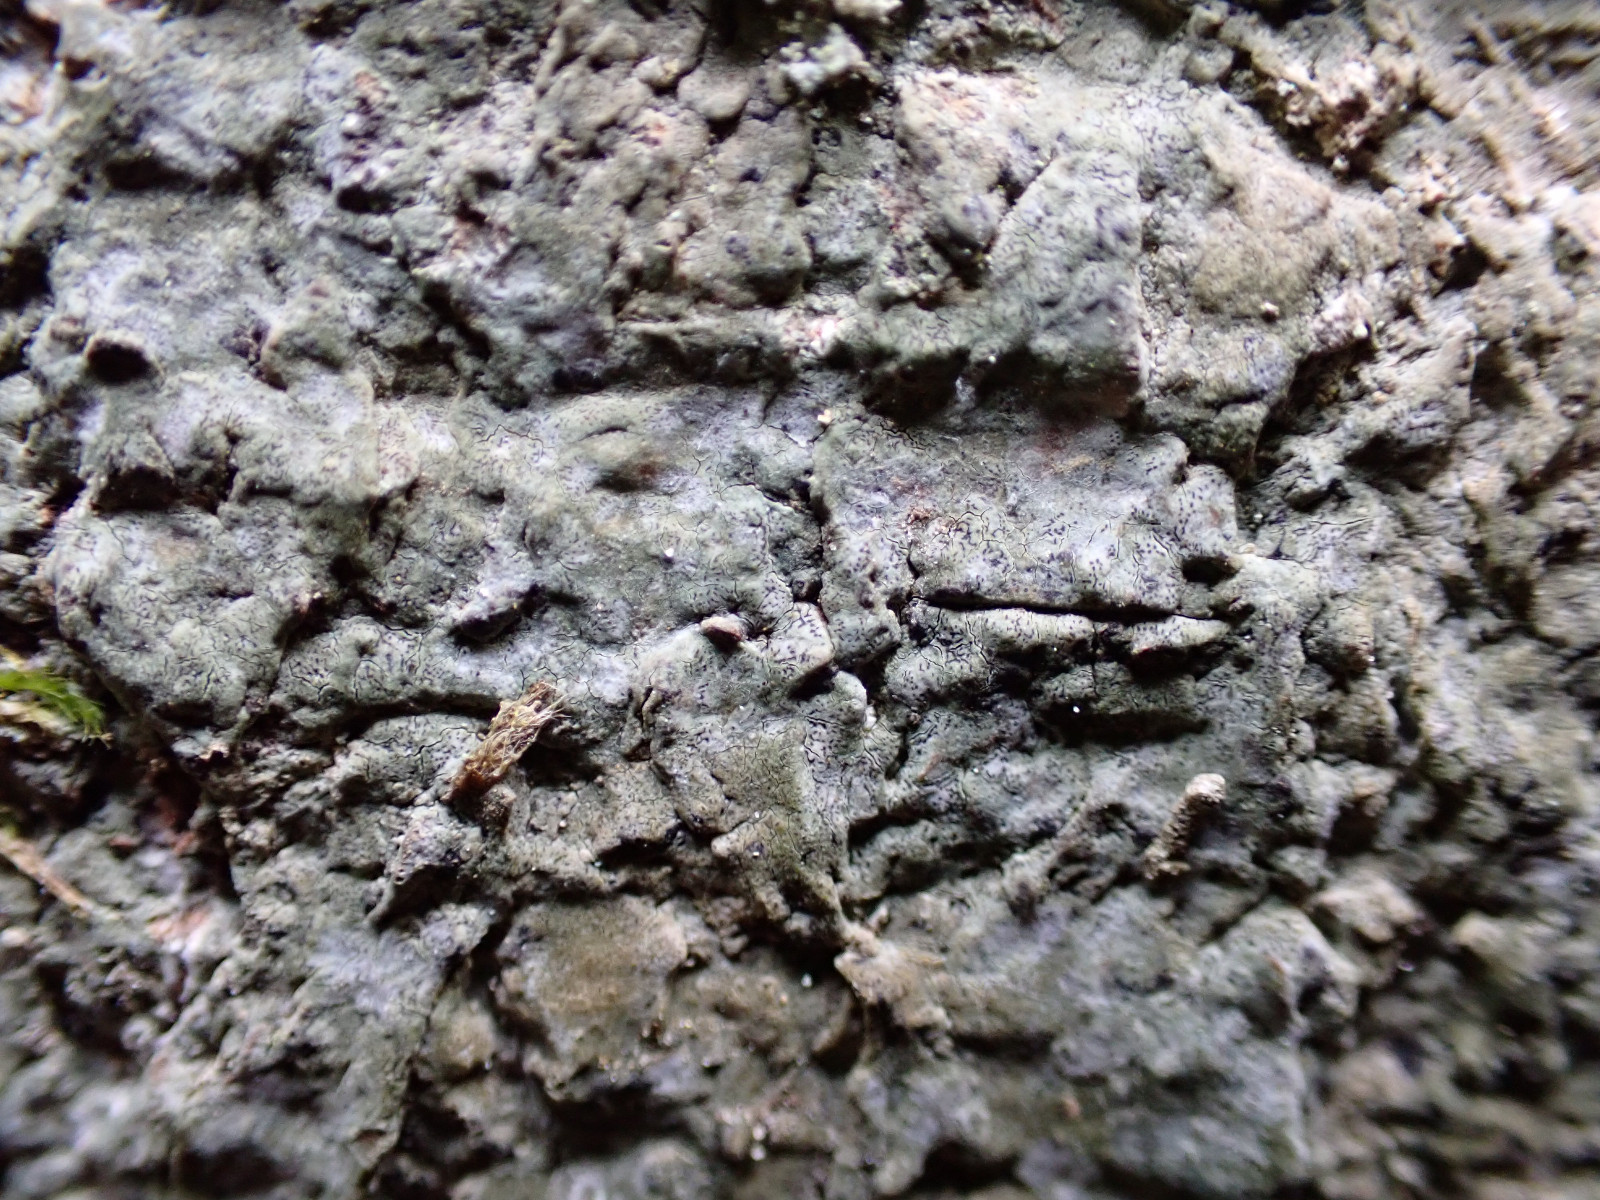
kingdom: Fungi
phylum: Ascomycota
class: Arthoniomycetes
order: Arthoniales
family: Roccellaceae
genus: Enterographa
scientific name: Enterographa crassa
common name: tyk prægelav
